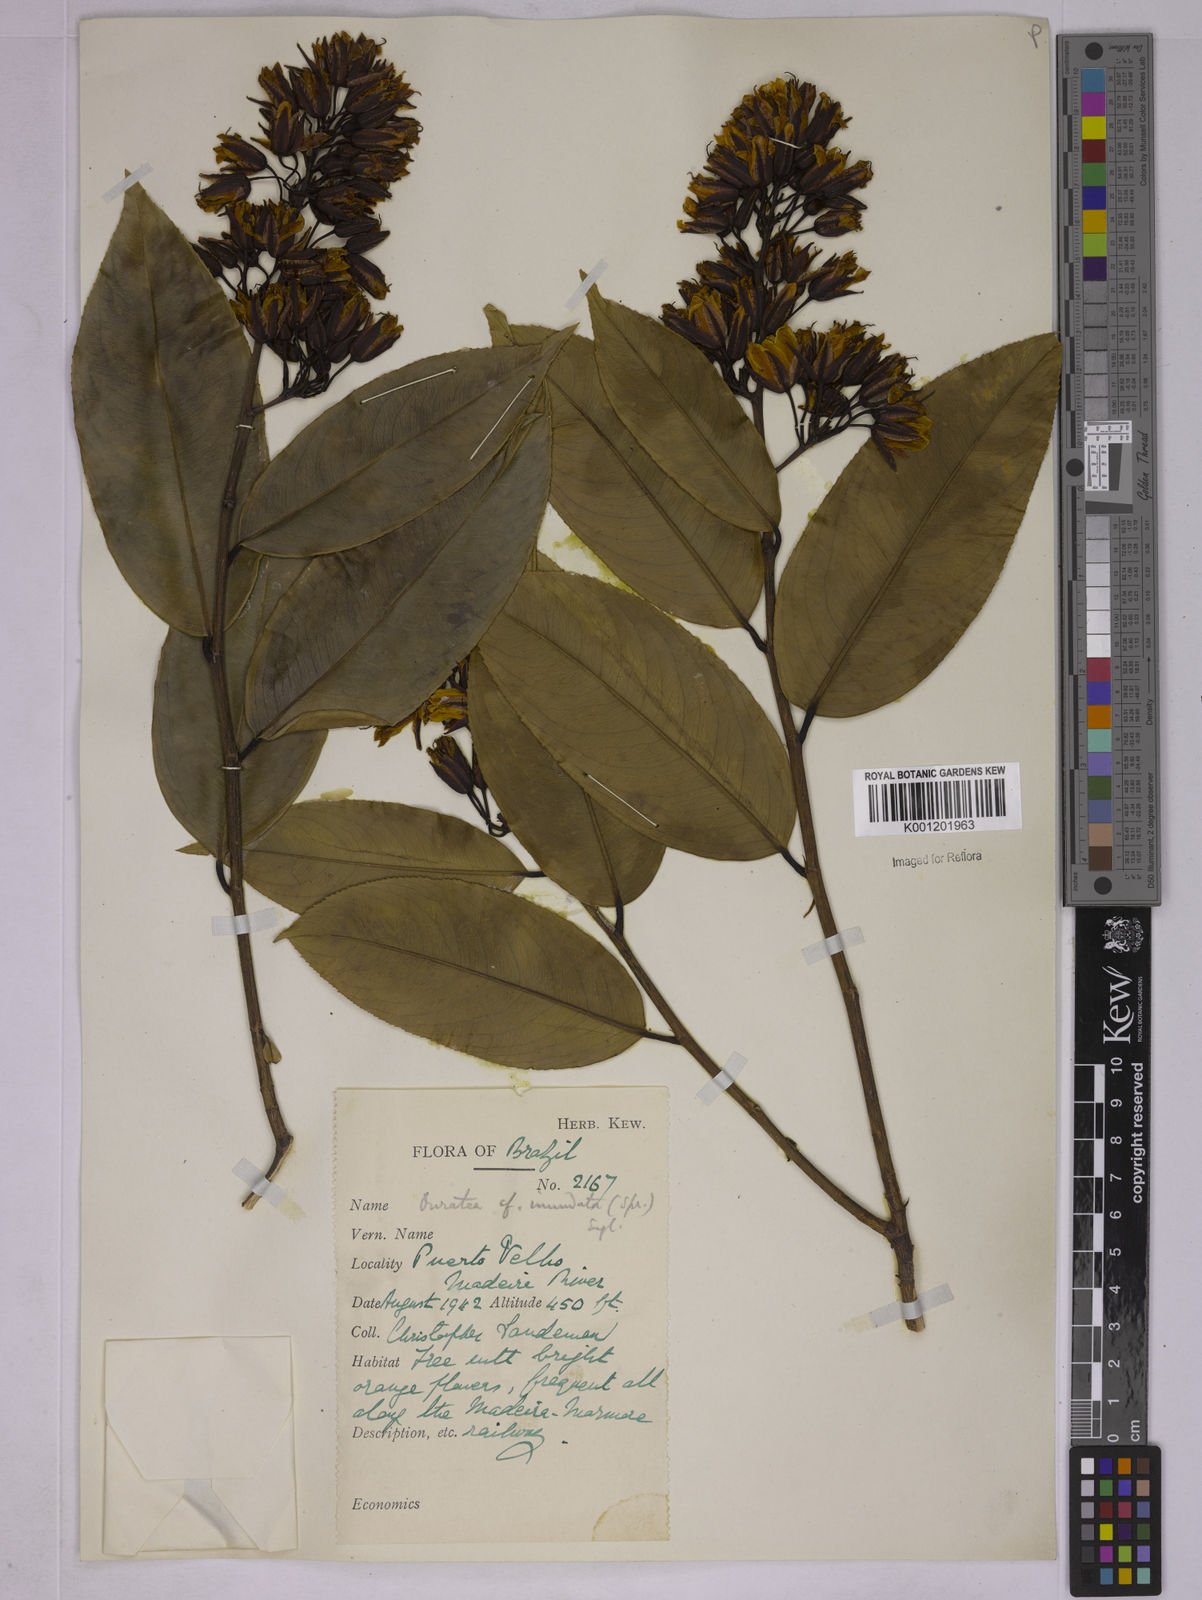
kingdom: Plantae
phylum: Tracheophyta
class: Magnoliopsida
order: Malpighiales
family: Ochnaceae
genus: Ouratea
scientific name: Ouratea inundata
